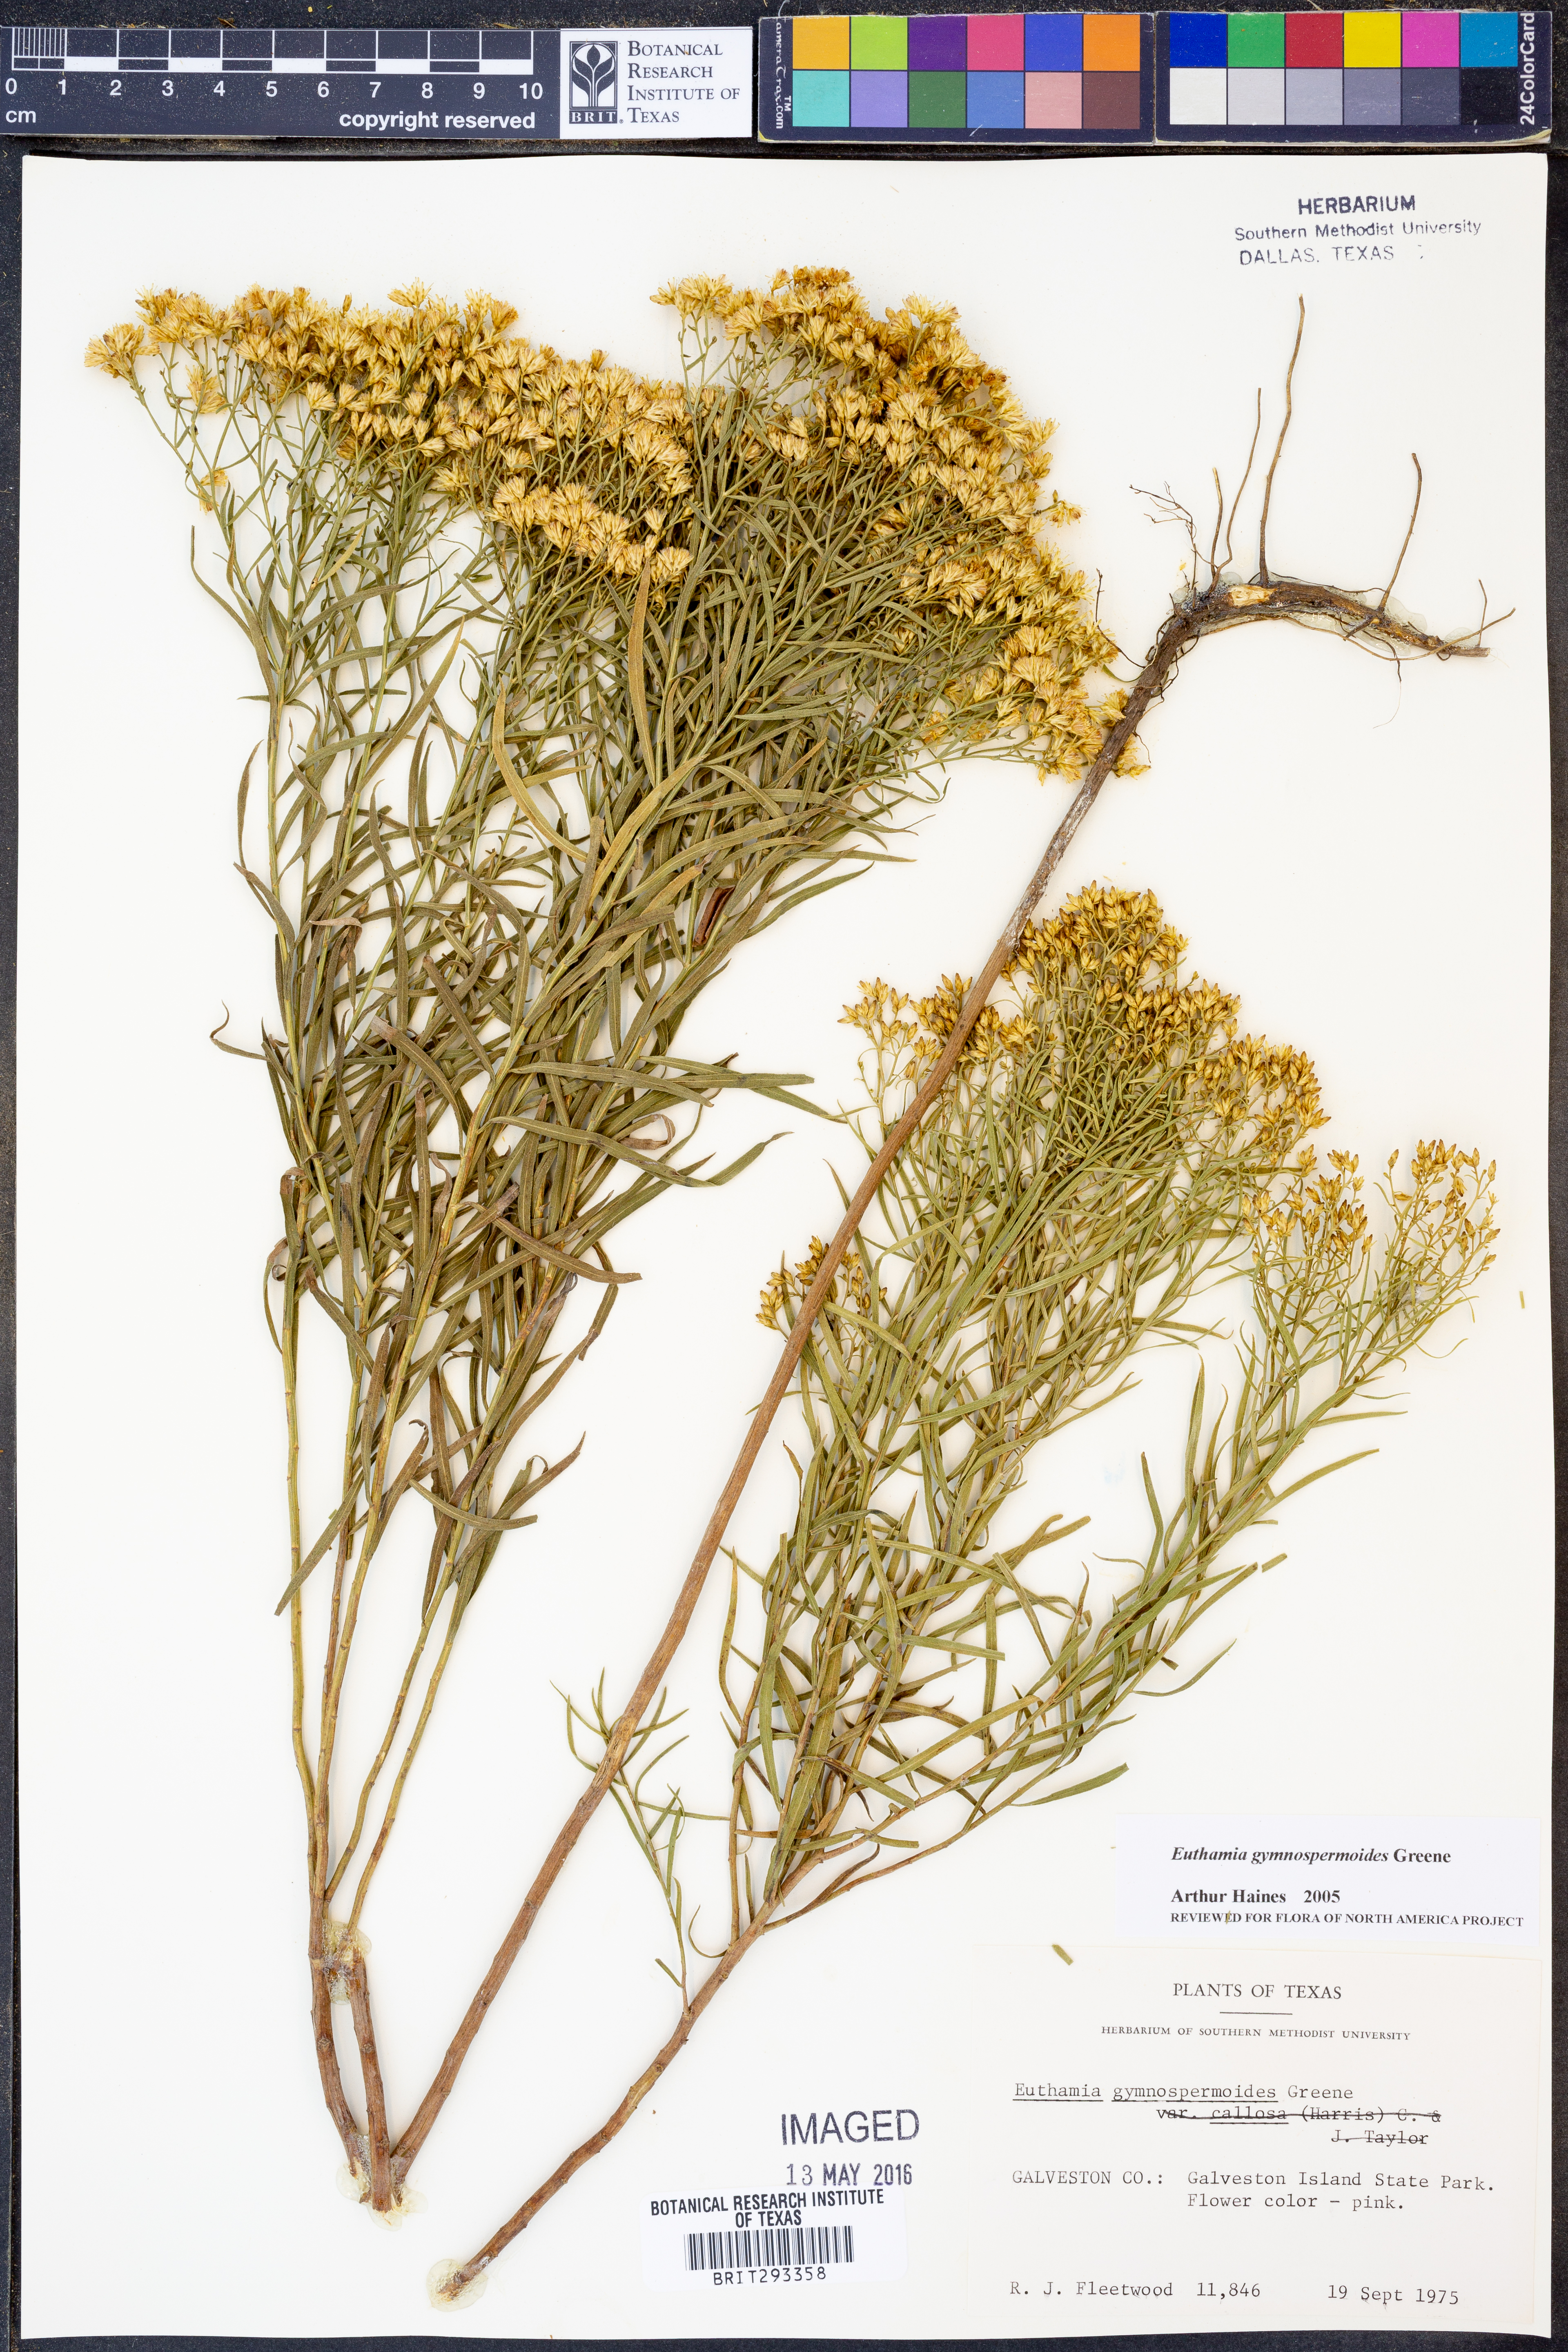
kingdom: Plantae
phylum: Tracheophyta
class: Magnoliopsida
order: Asterales
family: Asteraceae
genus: Euthamia
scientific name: Euthamia gymnospermoides
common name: Great plains goldentop
